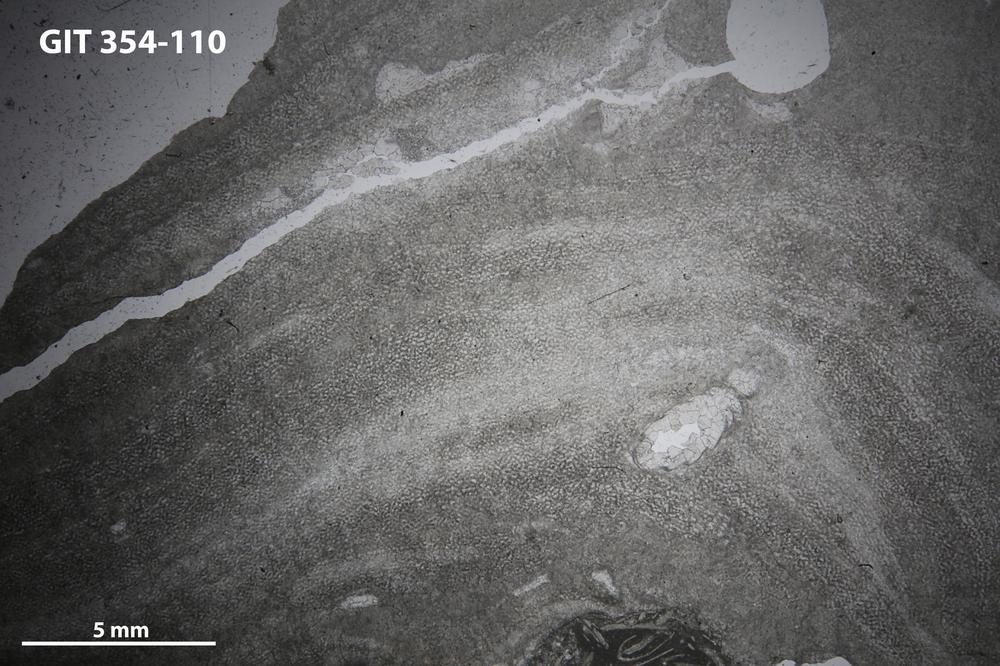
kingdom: Animalia
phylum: Porifera
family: Ecclimadictyidae
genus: Ecclimadictyon
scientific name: Ecclimadictyon Clathrodictyon microvesiculosum
